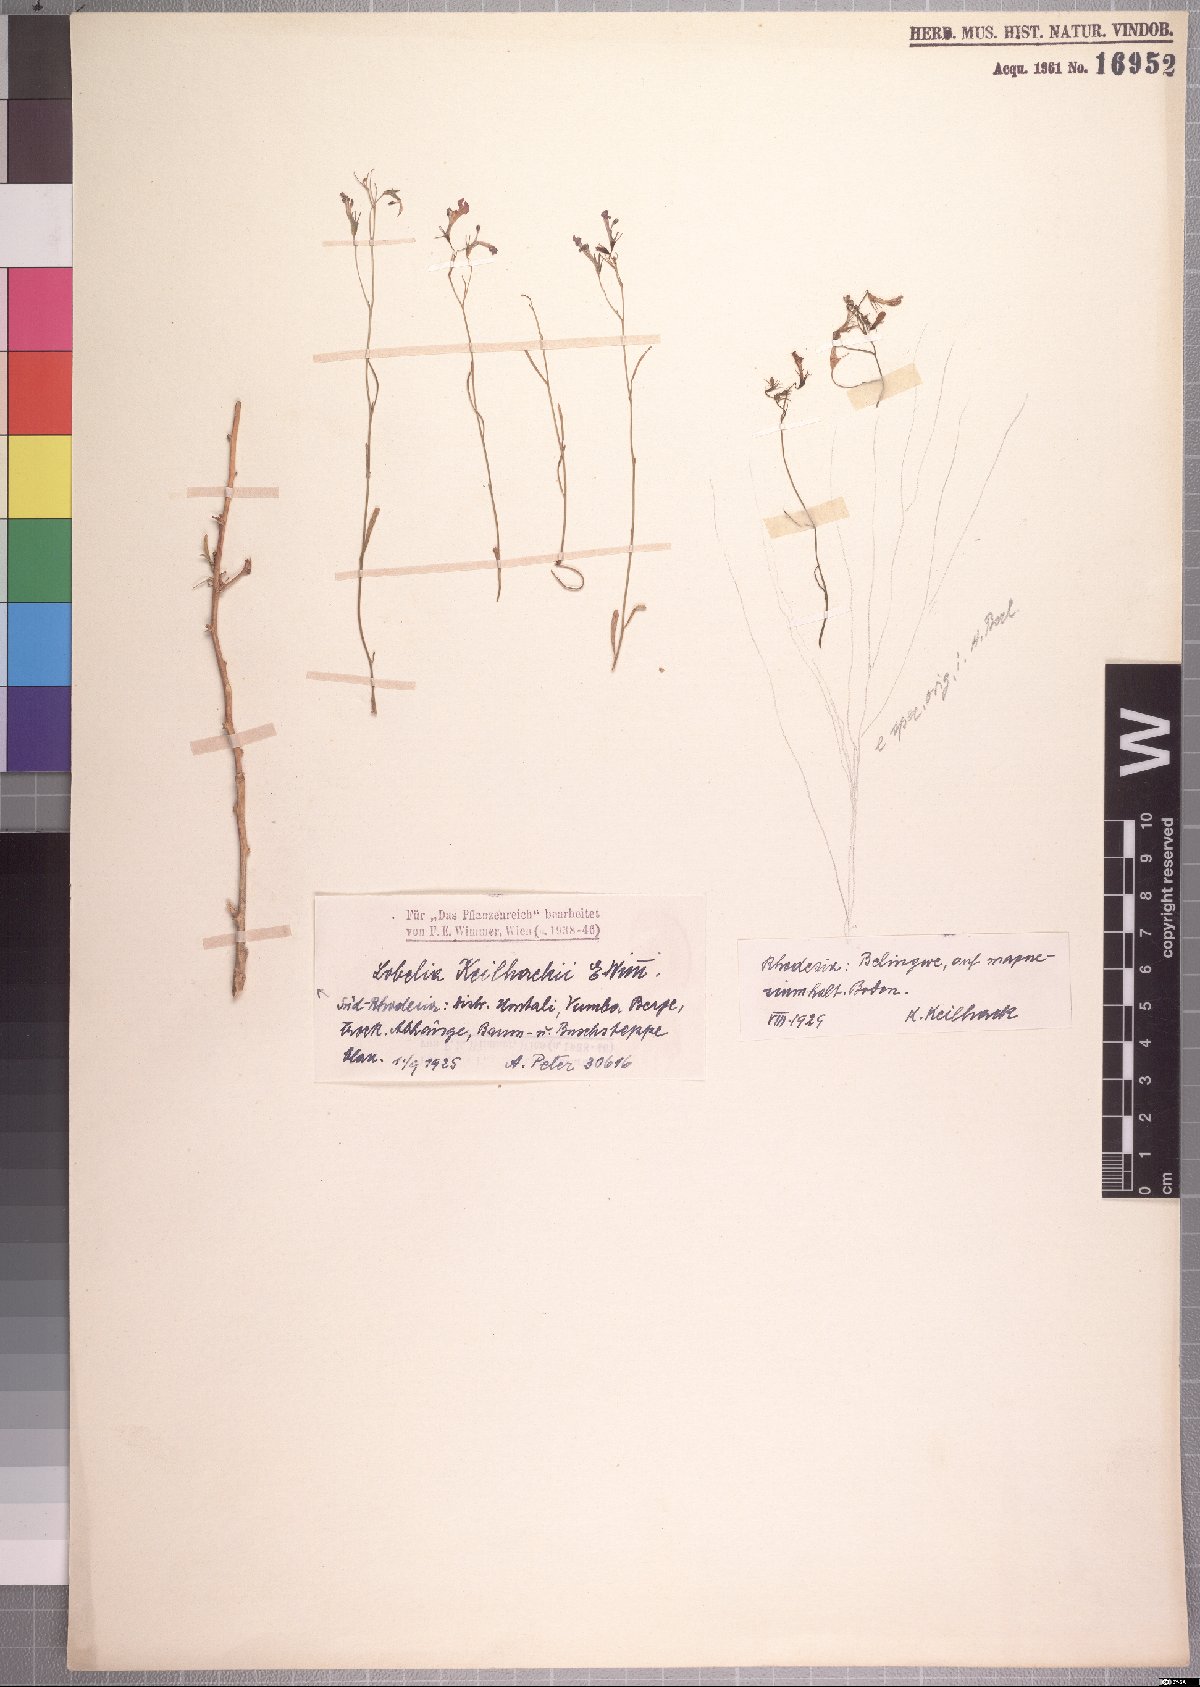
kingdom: Plantae
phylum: Tracheophyta
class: Magnoliopsida
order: Asterales
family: Campanulaceae
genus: Lobelia
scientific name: Lobelia erinus
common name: Edging lobelia
